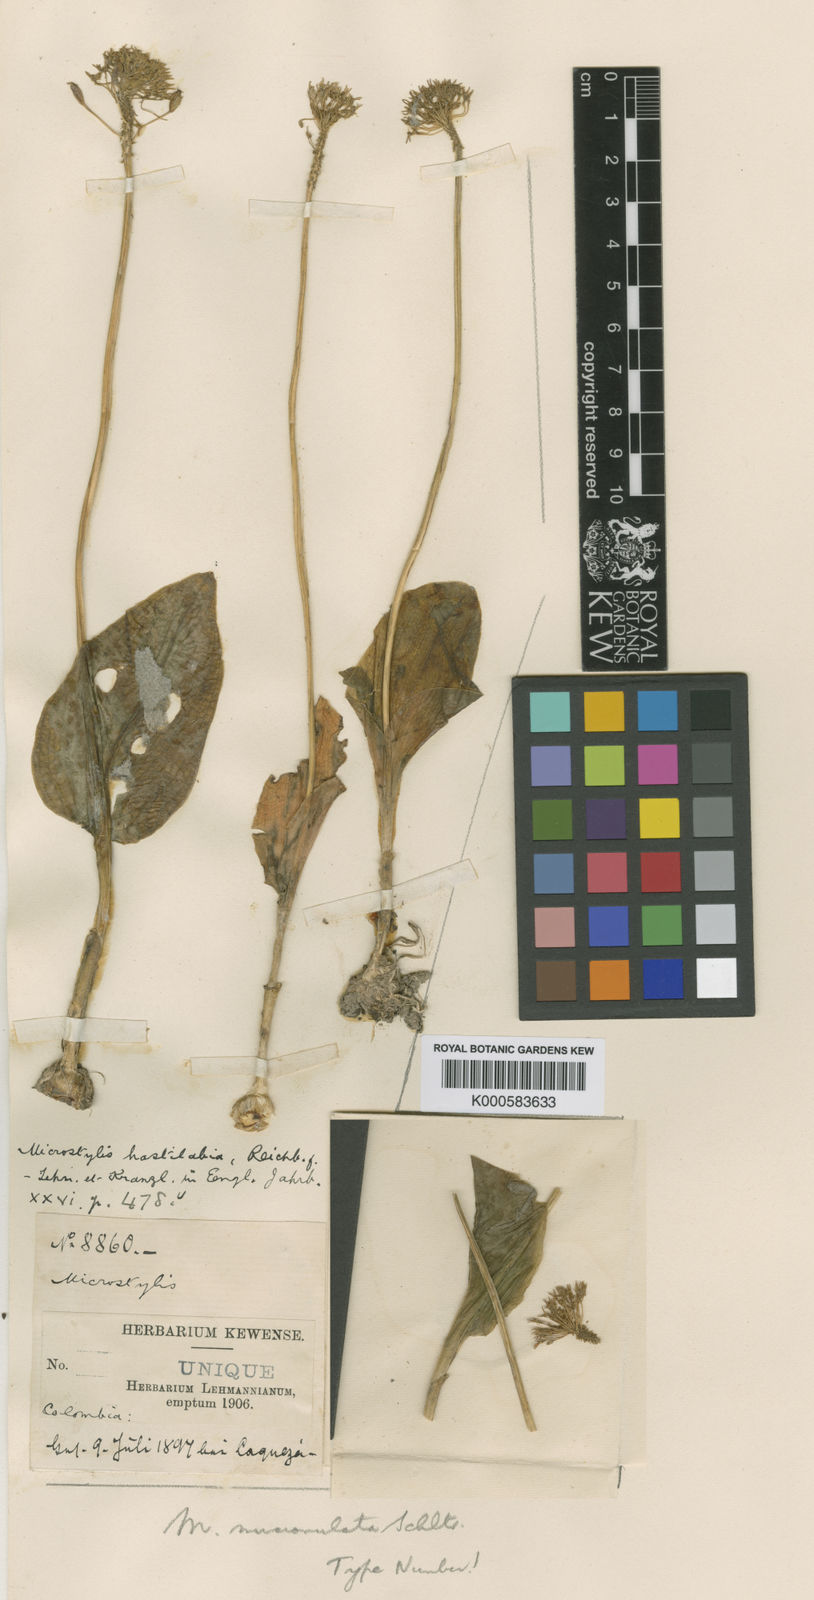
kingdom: Plantae
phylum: Tracheophyta
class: Liliopsida
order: Asparagales
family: Orchidaceae
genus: Malaxis
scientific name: Malaxis mucronulata
